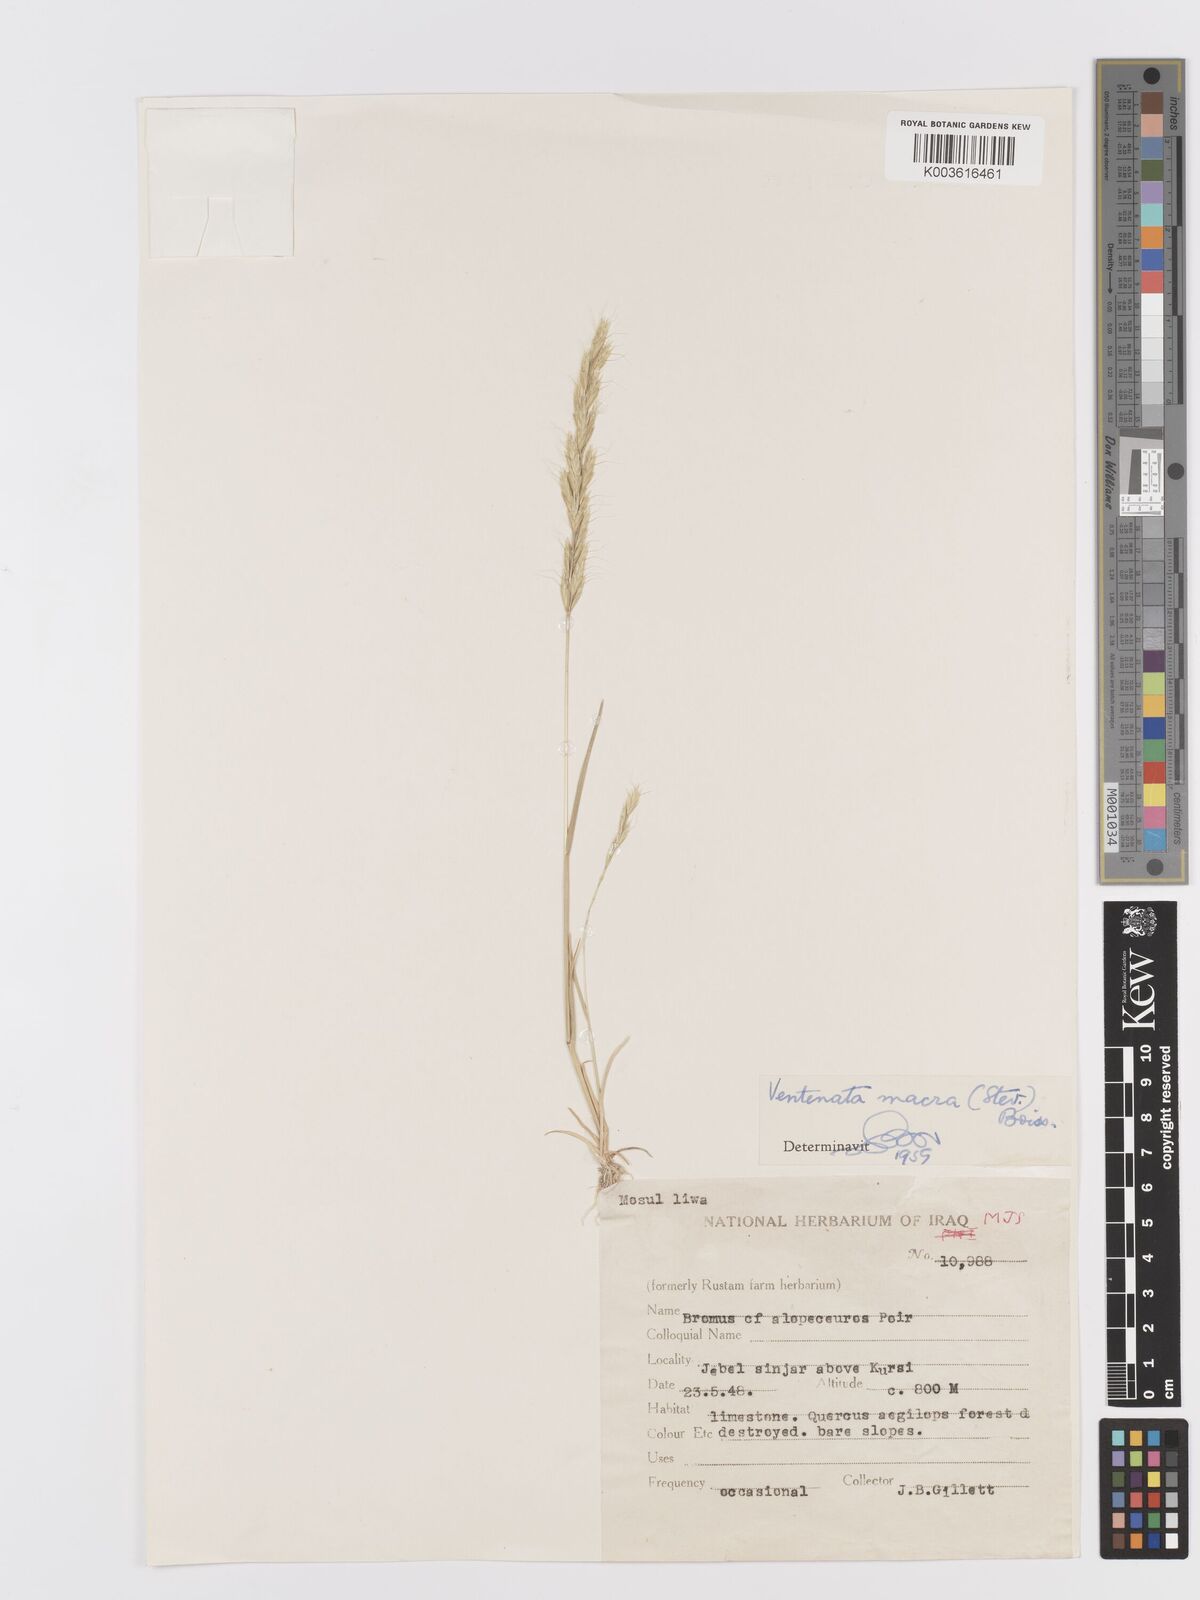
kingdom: Plantae
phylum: Tracheophyta
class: Liliopsida
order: Poales
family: Poaceae
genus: Ventenata
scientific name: Ventenata macra
